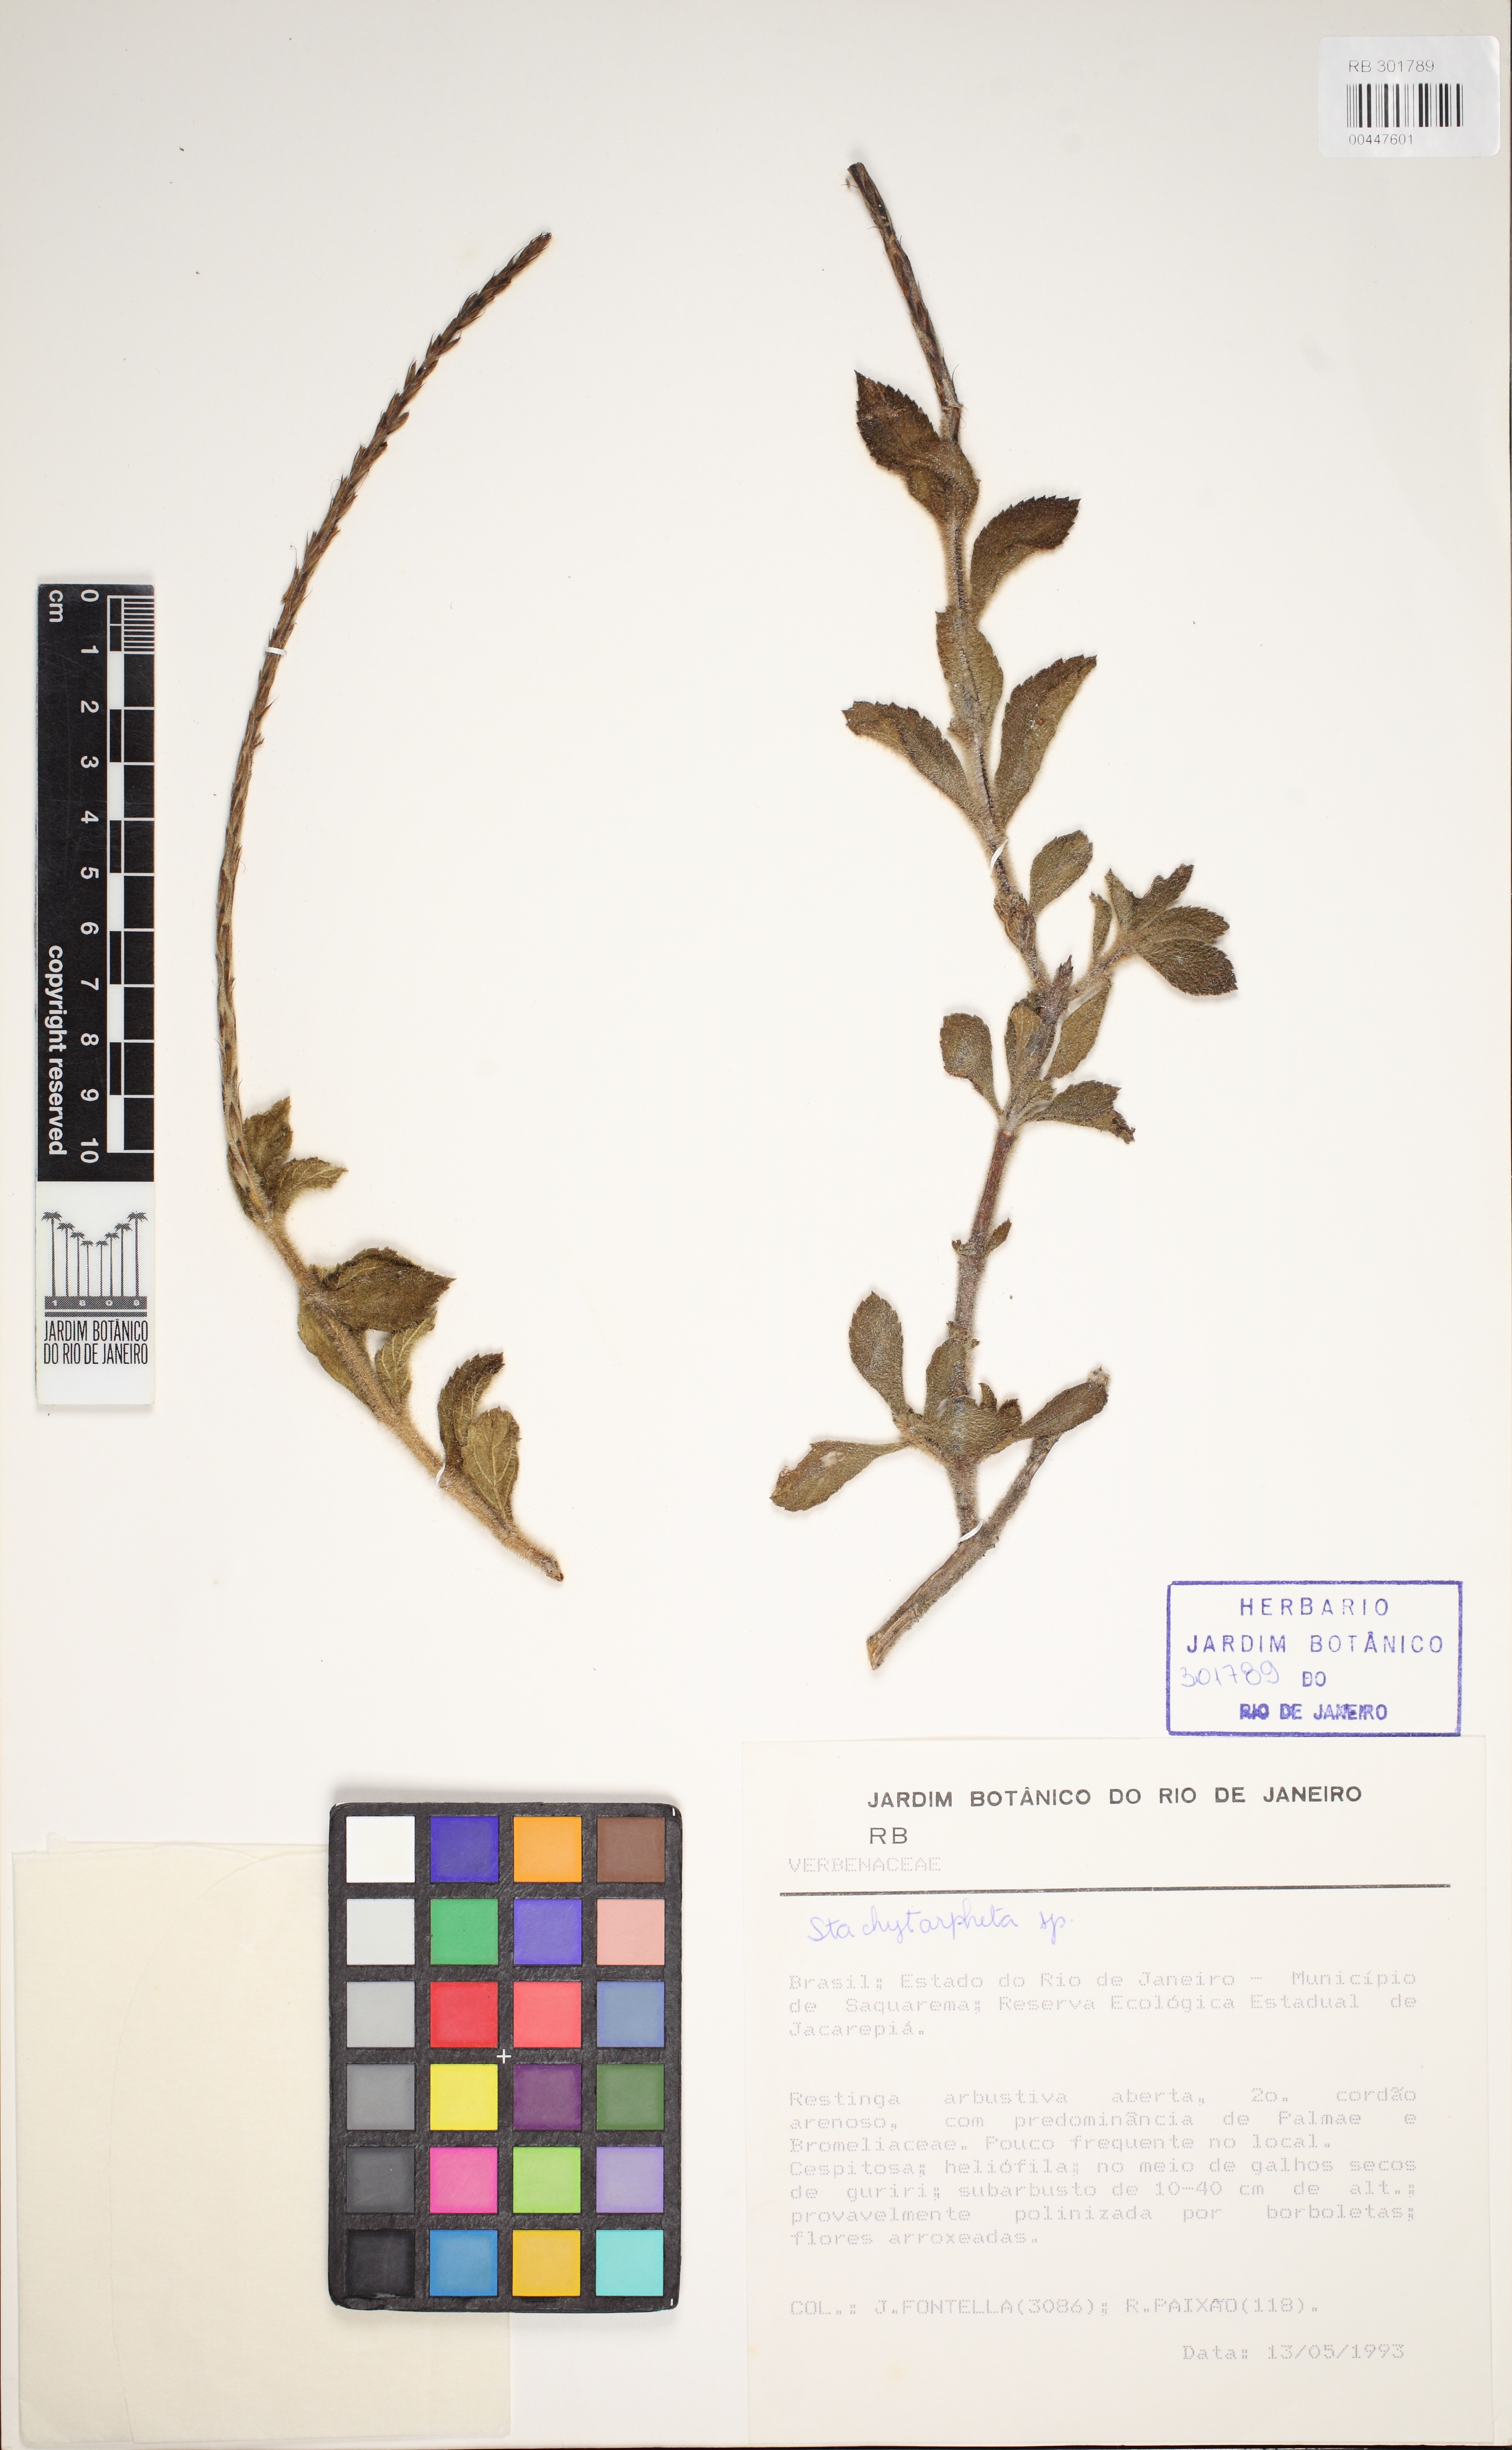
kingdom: Plantae
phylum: Tracheophyta
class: Magnoliopsida
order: Lamiales
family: Verbenaceae
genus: Stachytarpheta
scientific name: Stachytarpheta hirsutissima
